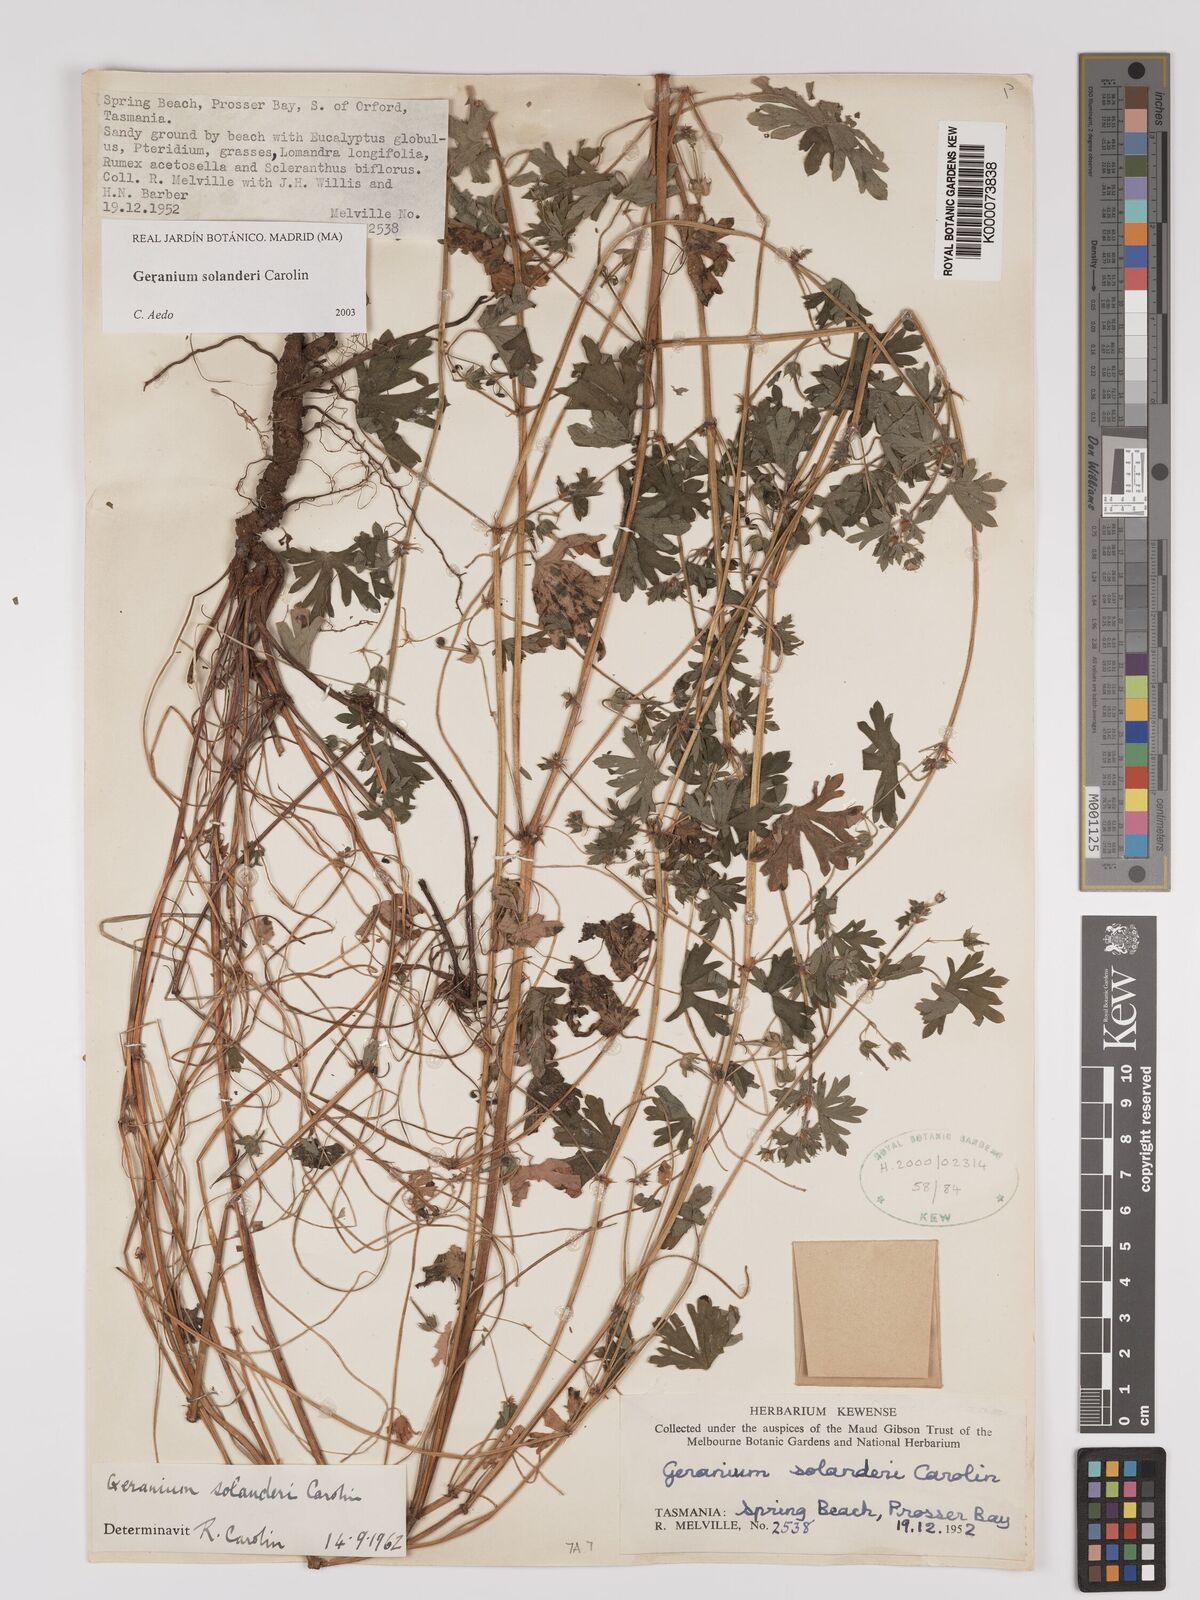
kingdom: Plantae
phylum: Tracheophyta
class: Magnoliopsida
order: Geraniales
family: Geraniaceae
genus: Geranium
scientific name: Geranium solanderi
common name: Solander's geranium
